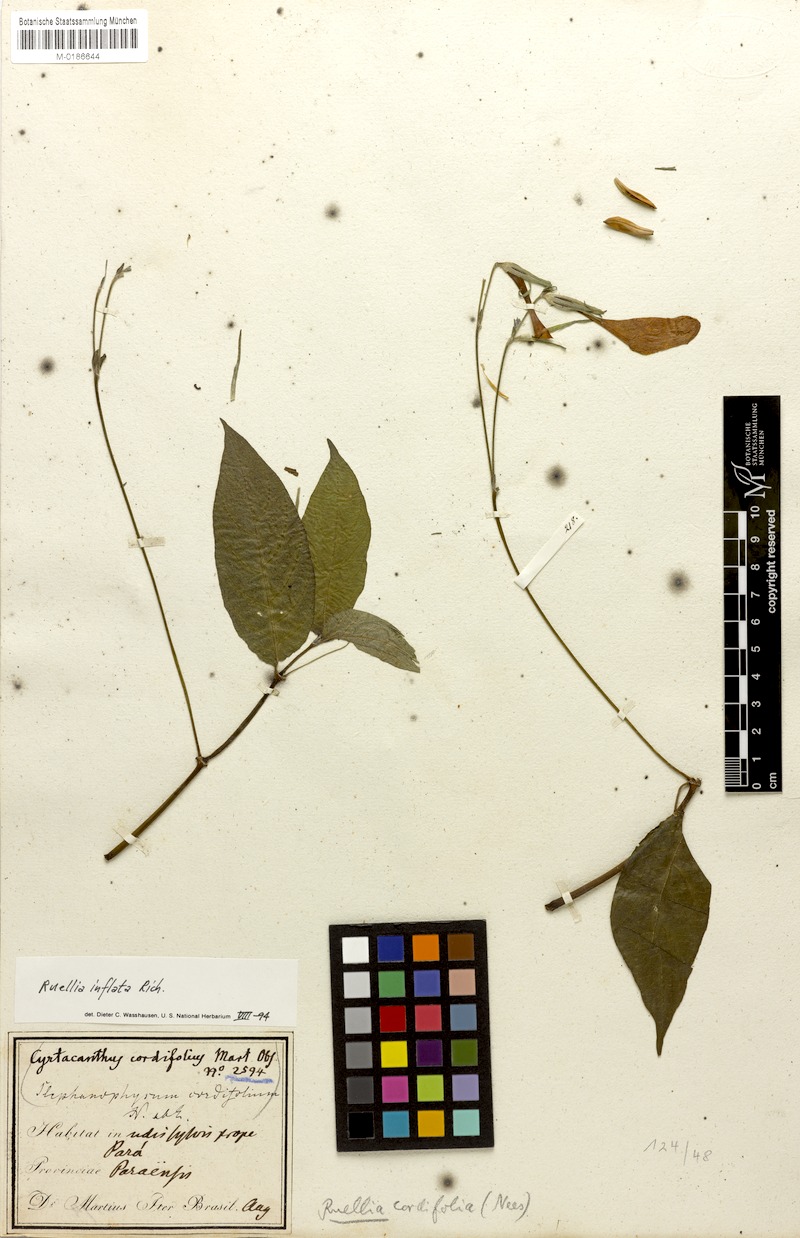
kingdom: Plantae
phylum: Tracheophyta
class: Magnoliopsida
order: Lamiales
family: Acanthaceae
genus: Ruellia
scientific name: Ruellia inflata
